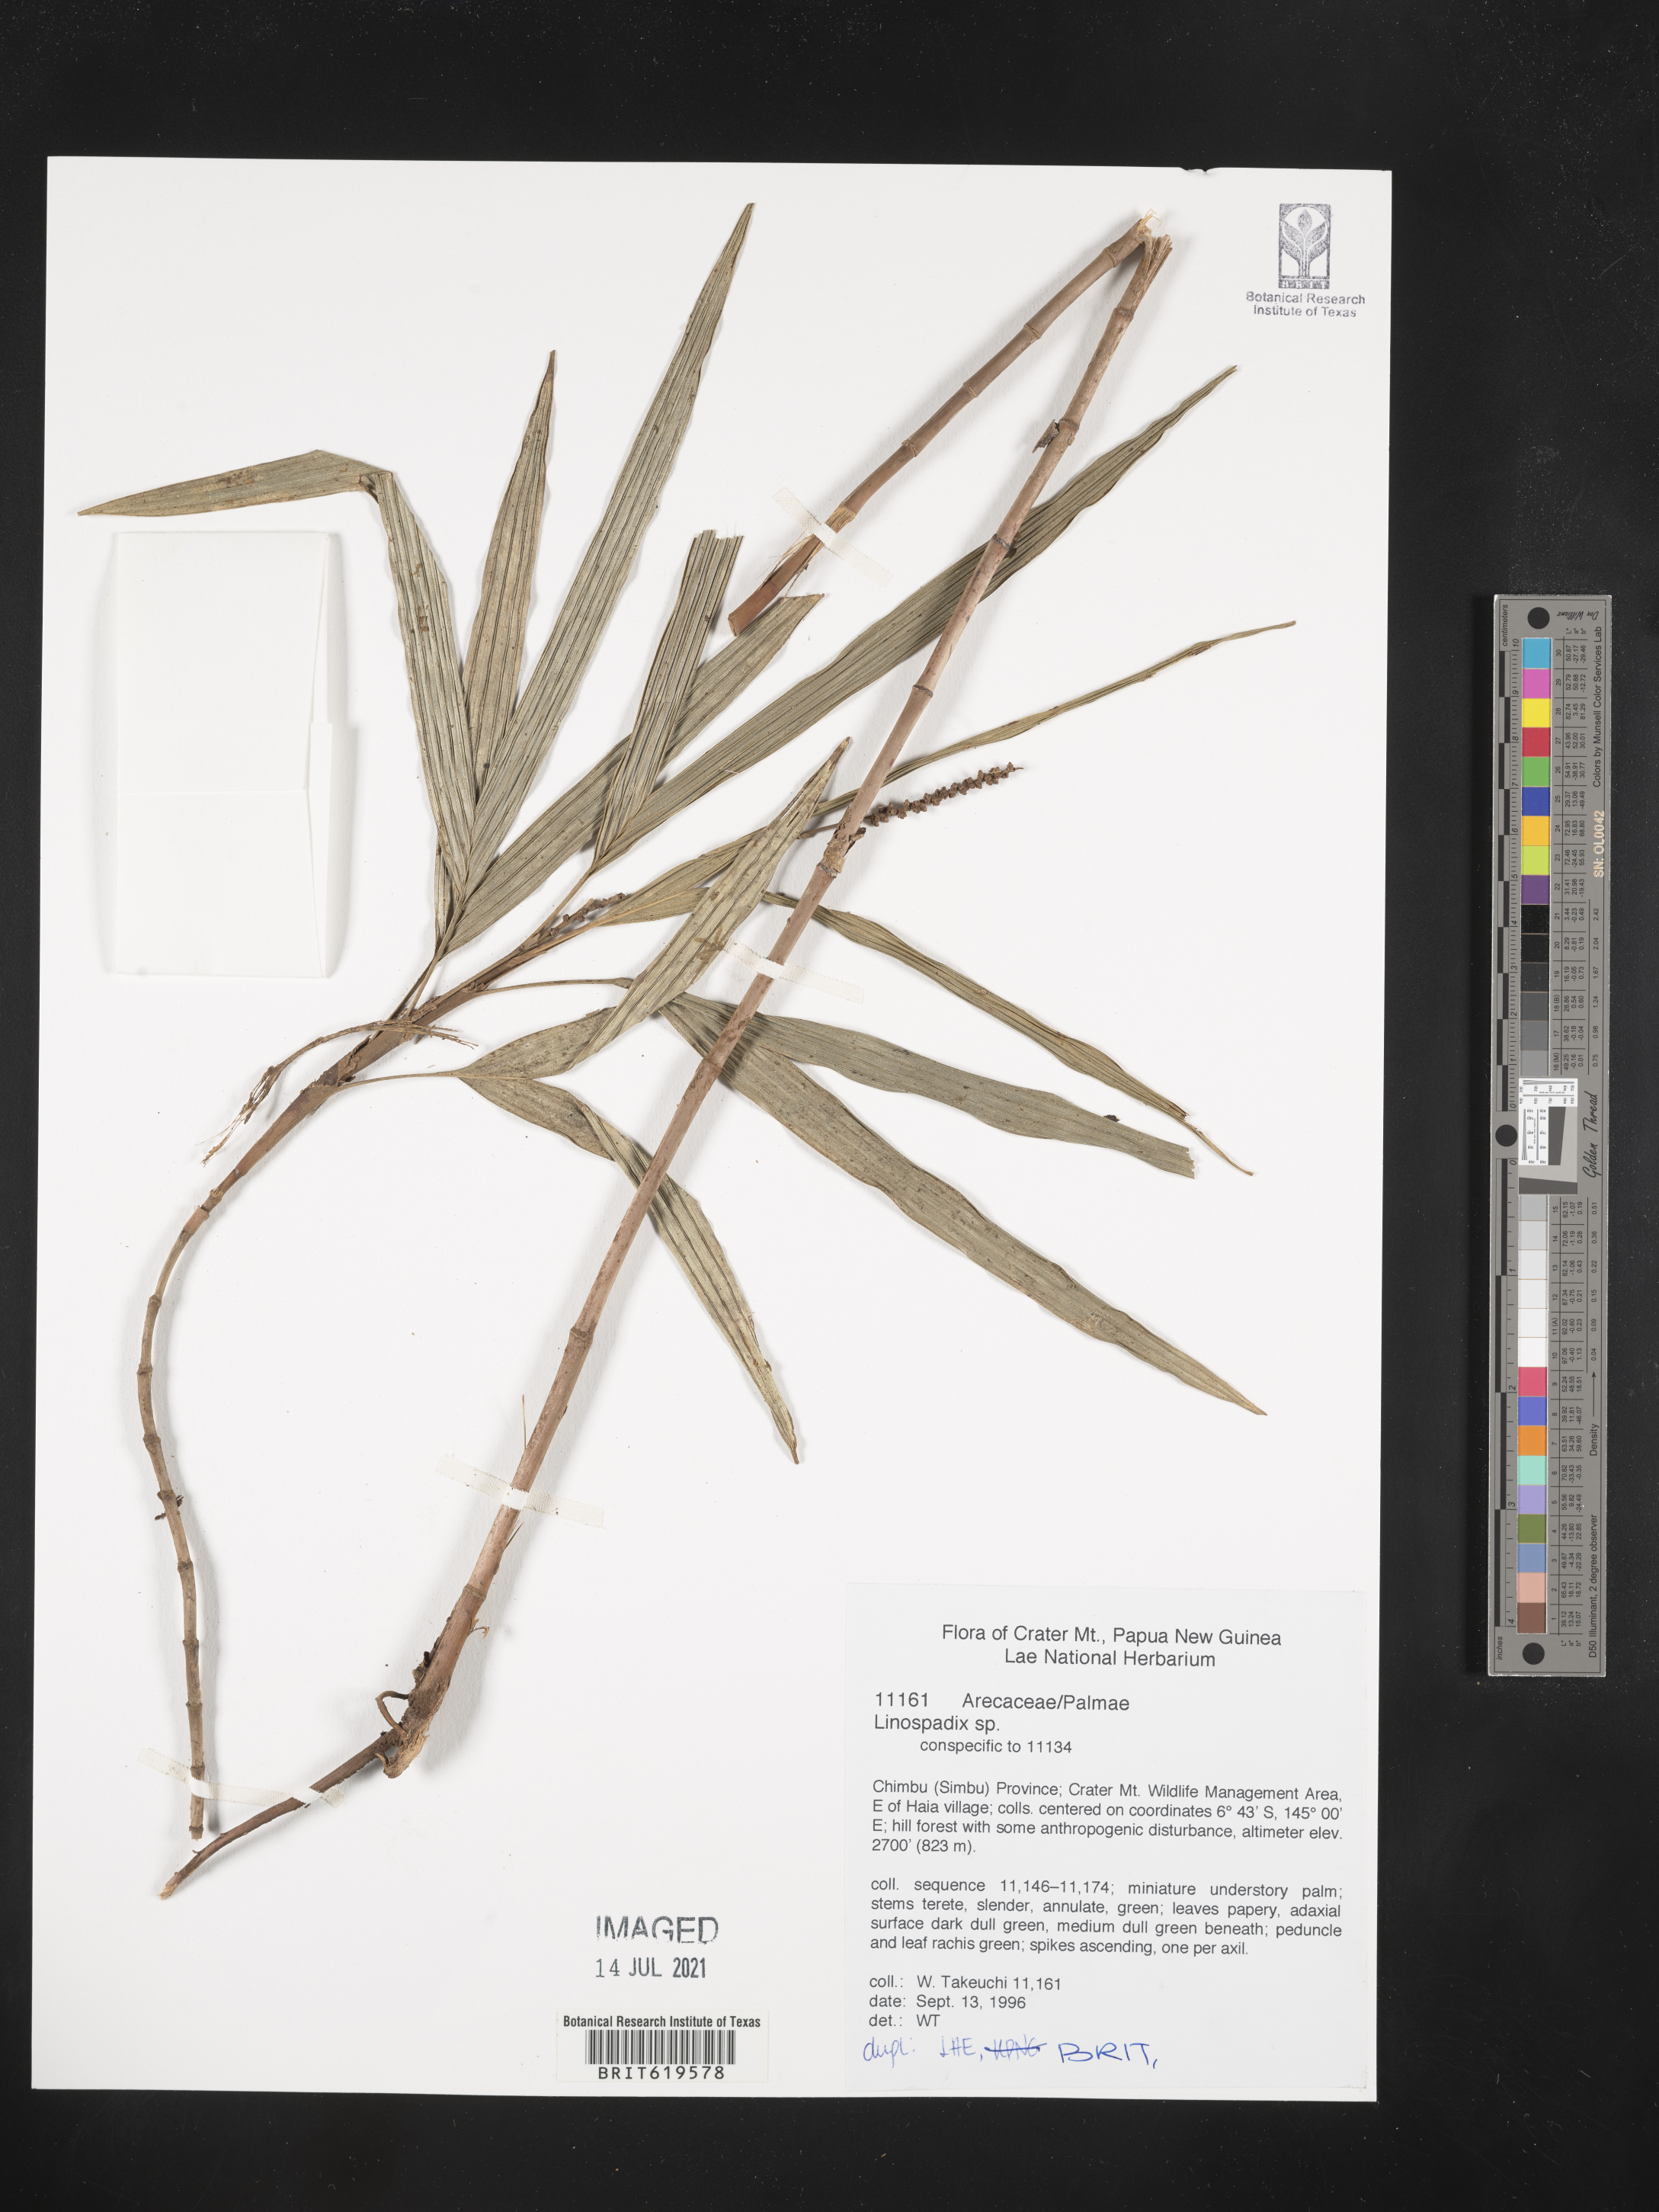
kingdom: Plantae
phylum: Tracheophyta
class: Liliopsida
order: Arecales
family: Arecaceae
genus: Linospadix
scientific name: Linospadix
